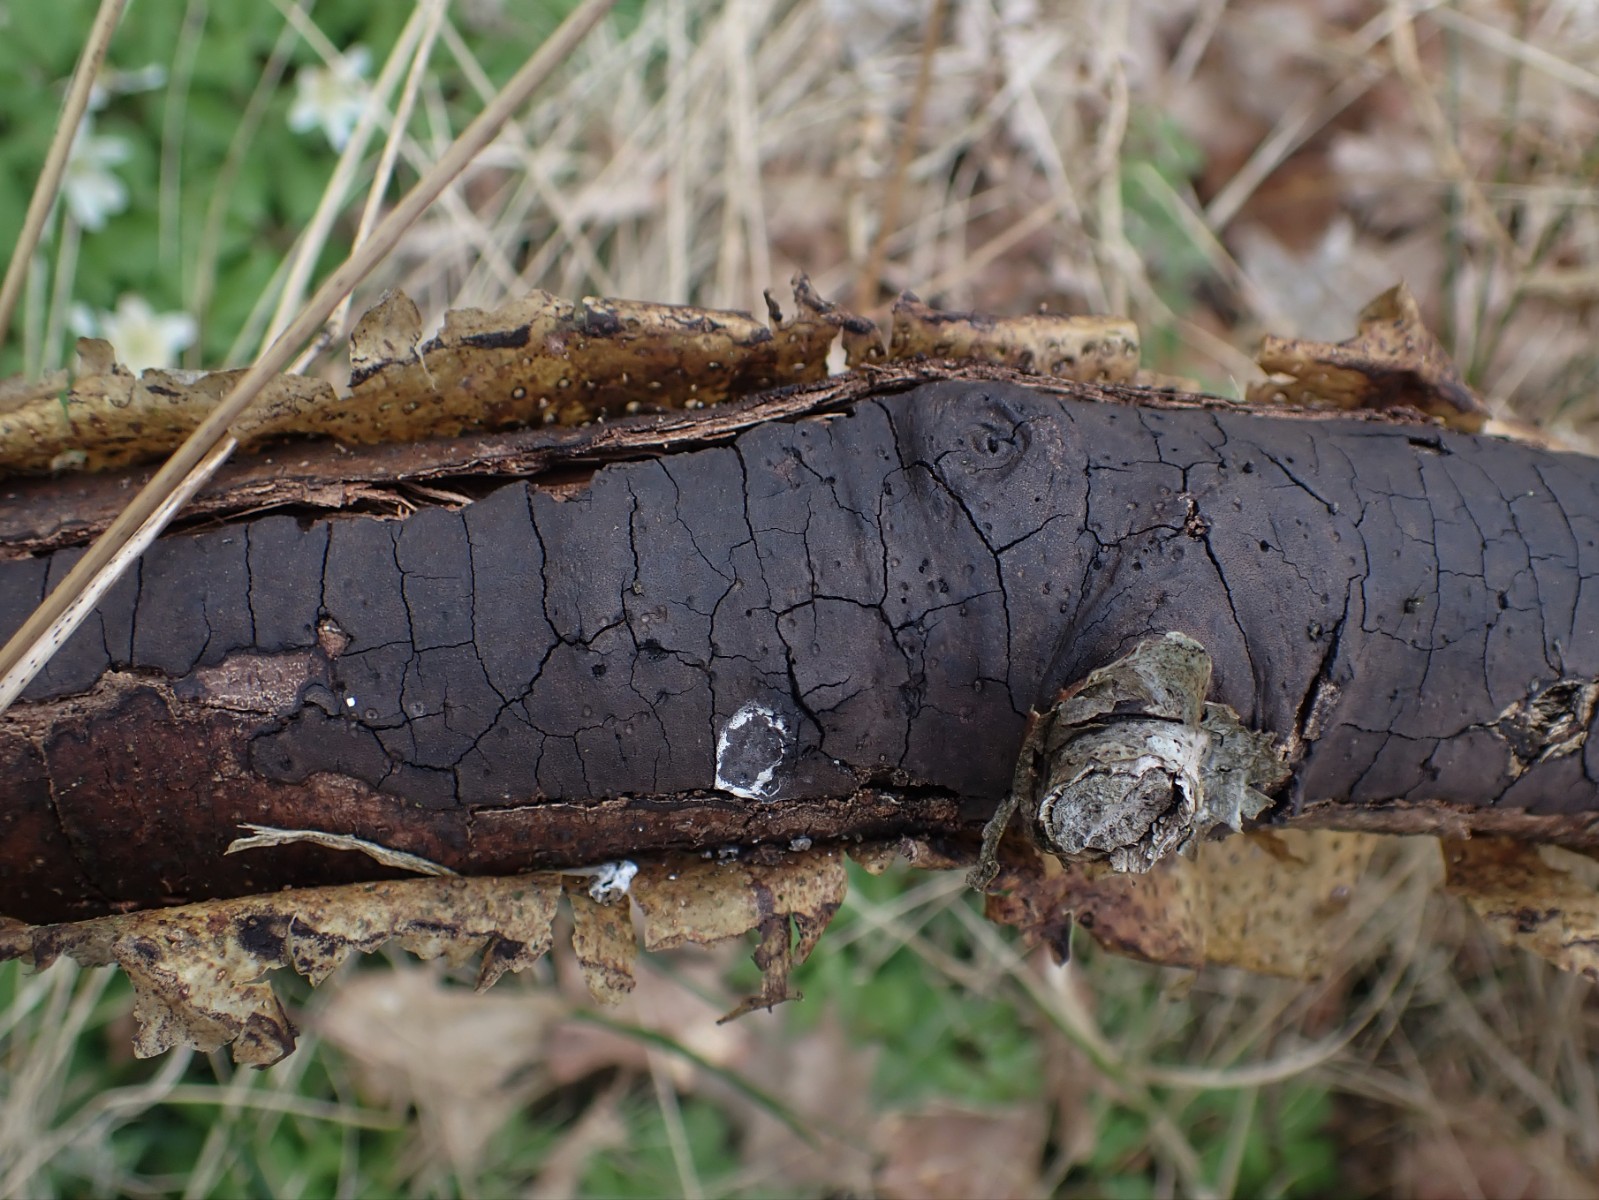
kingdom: Fungi
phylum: Ascomycota
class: Sordariomycetes
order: Xylariales
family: Diatrypaceae
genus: Diatrype
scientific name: Diatrype decorticata
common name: barksprænger-kulskorpe
